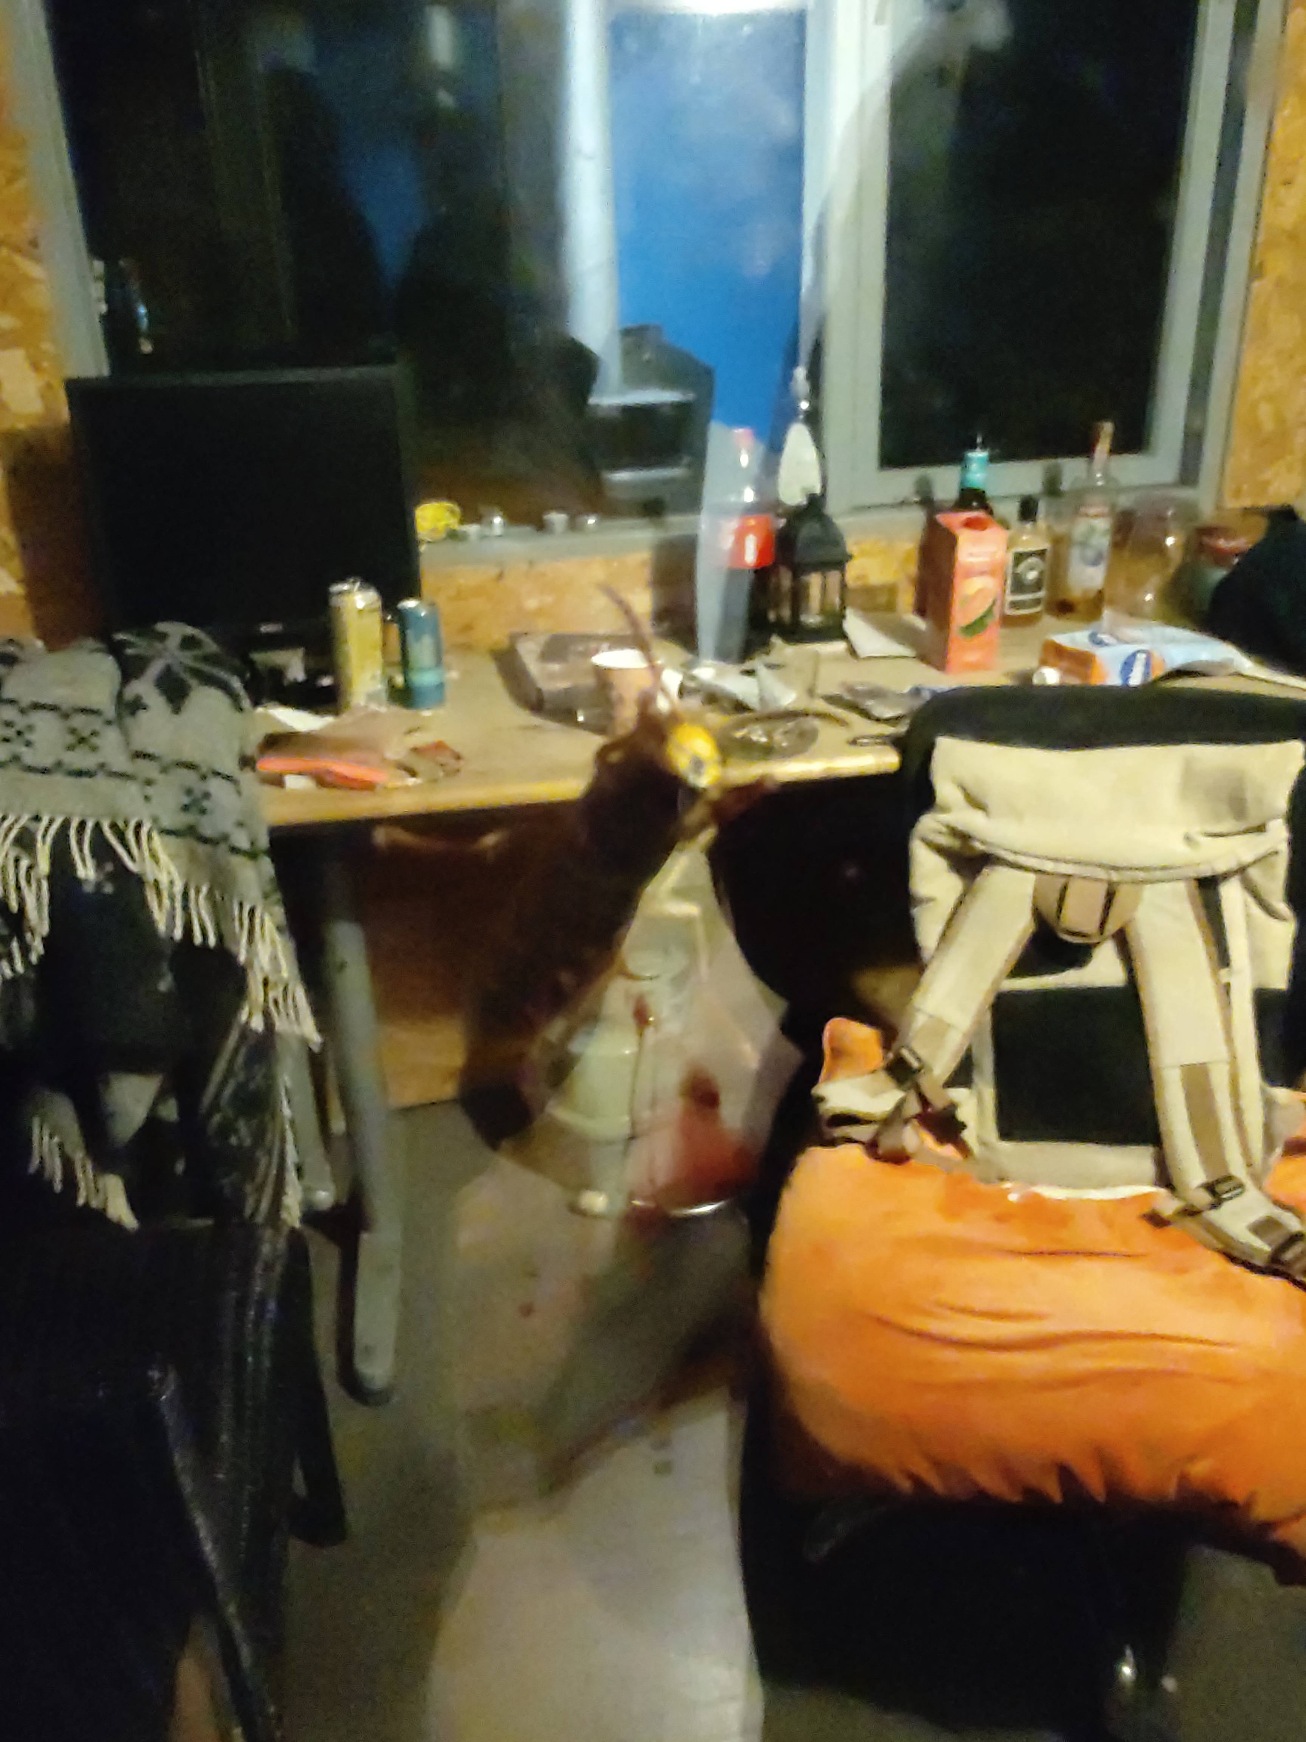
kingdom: Animalia
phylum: Arthropoda
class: Insecta
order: Hymenoptera
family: Vespidae
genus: Vespa
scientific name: Vespa crabro
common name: Stor gedehams
